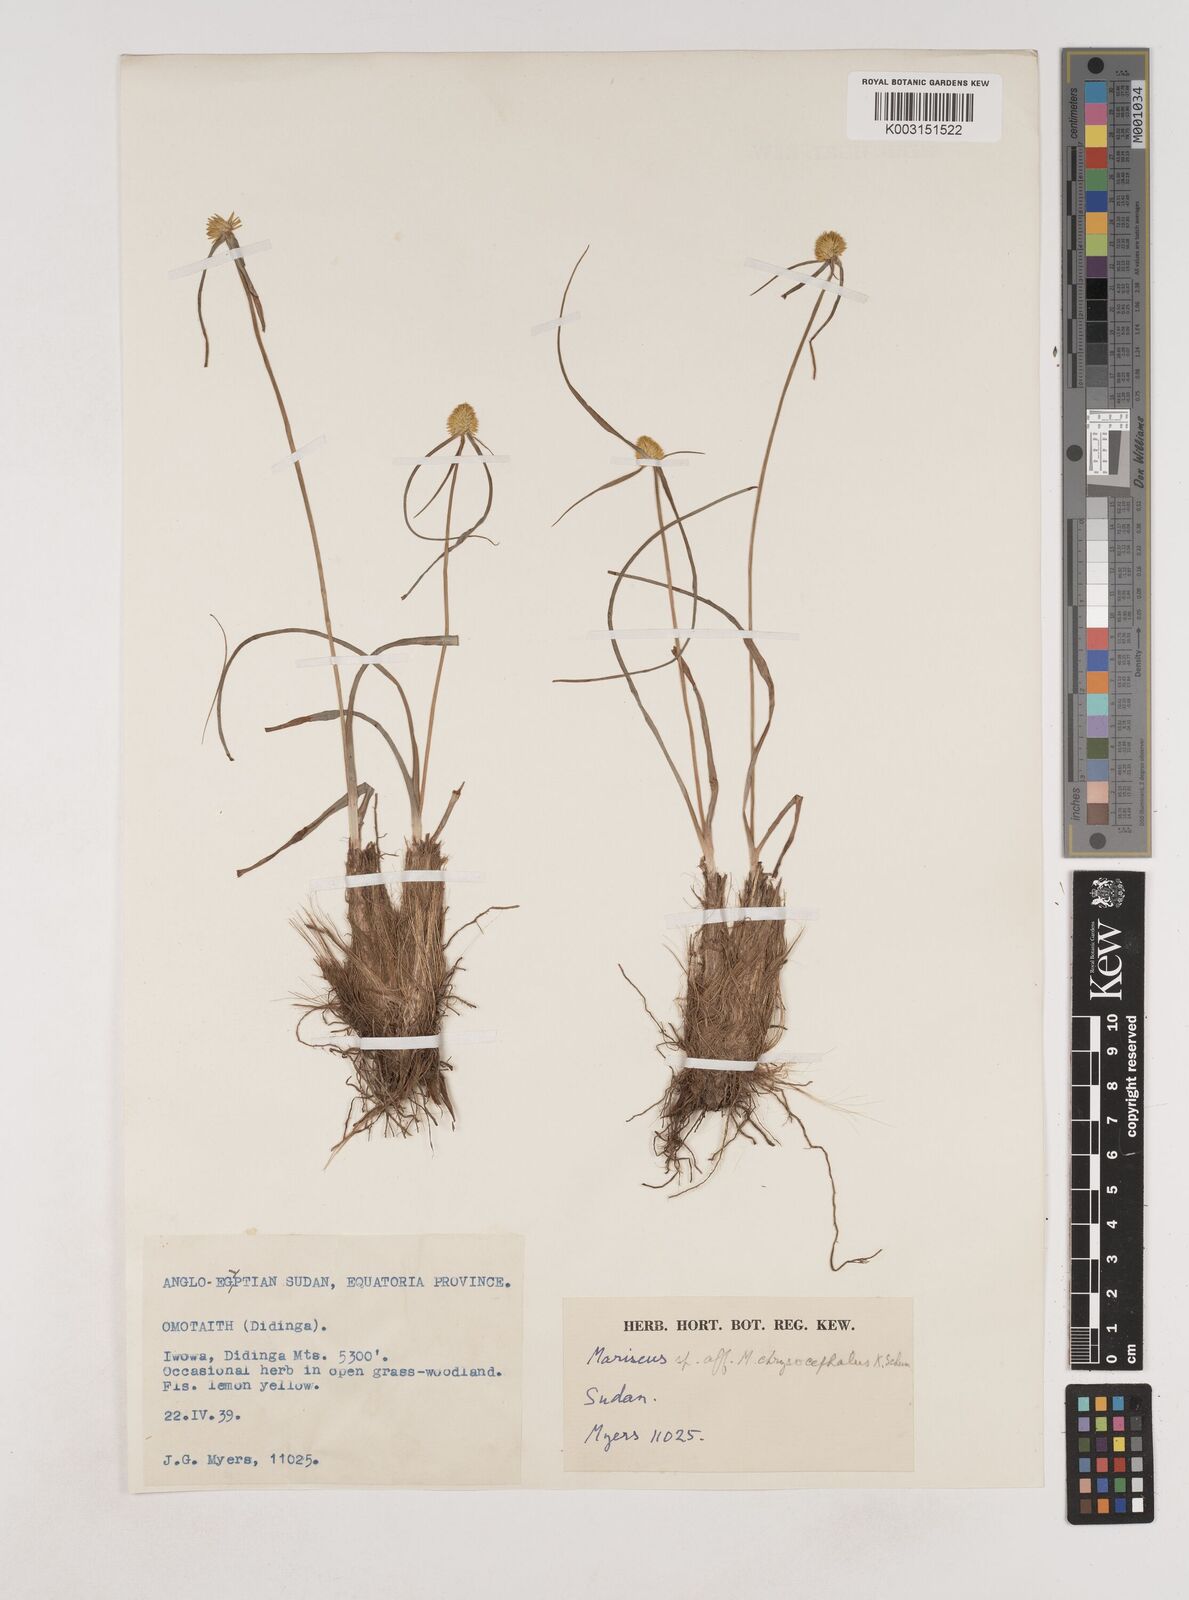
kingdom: Plantae
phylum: Tracheophyta
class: Liliopsida
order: Poales
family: Cyperaceae
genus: Cyperus
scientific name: Cyperus remotus
